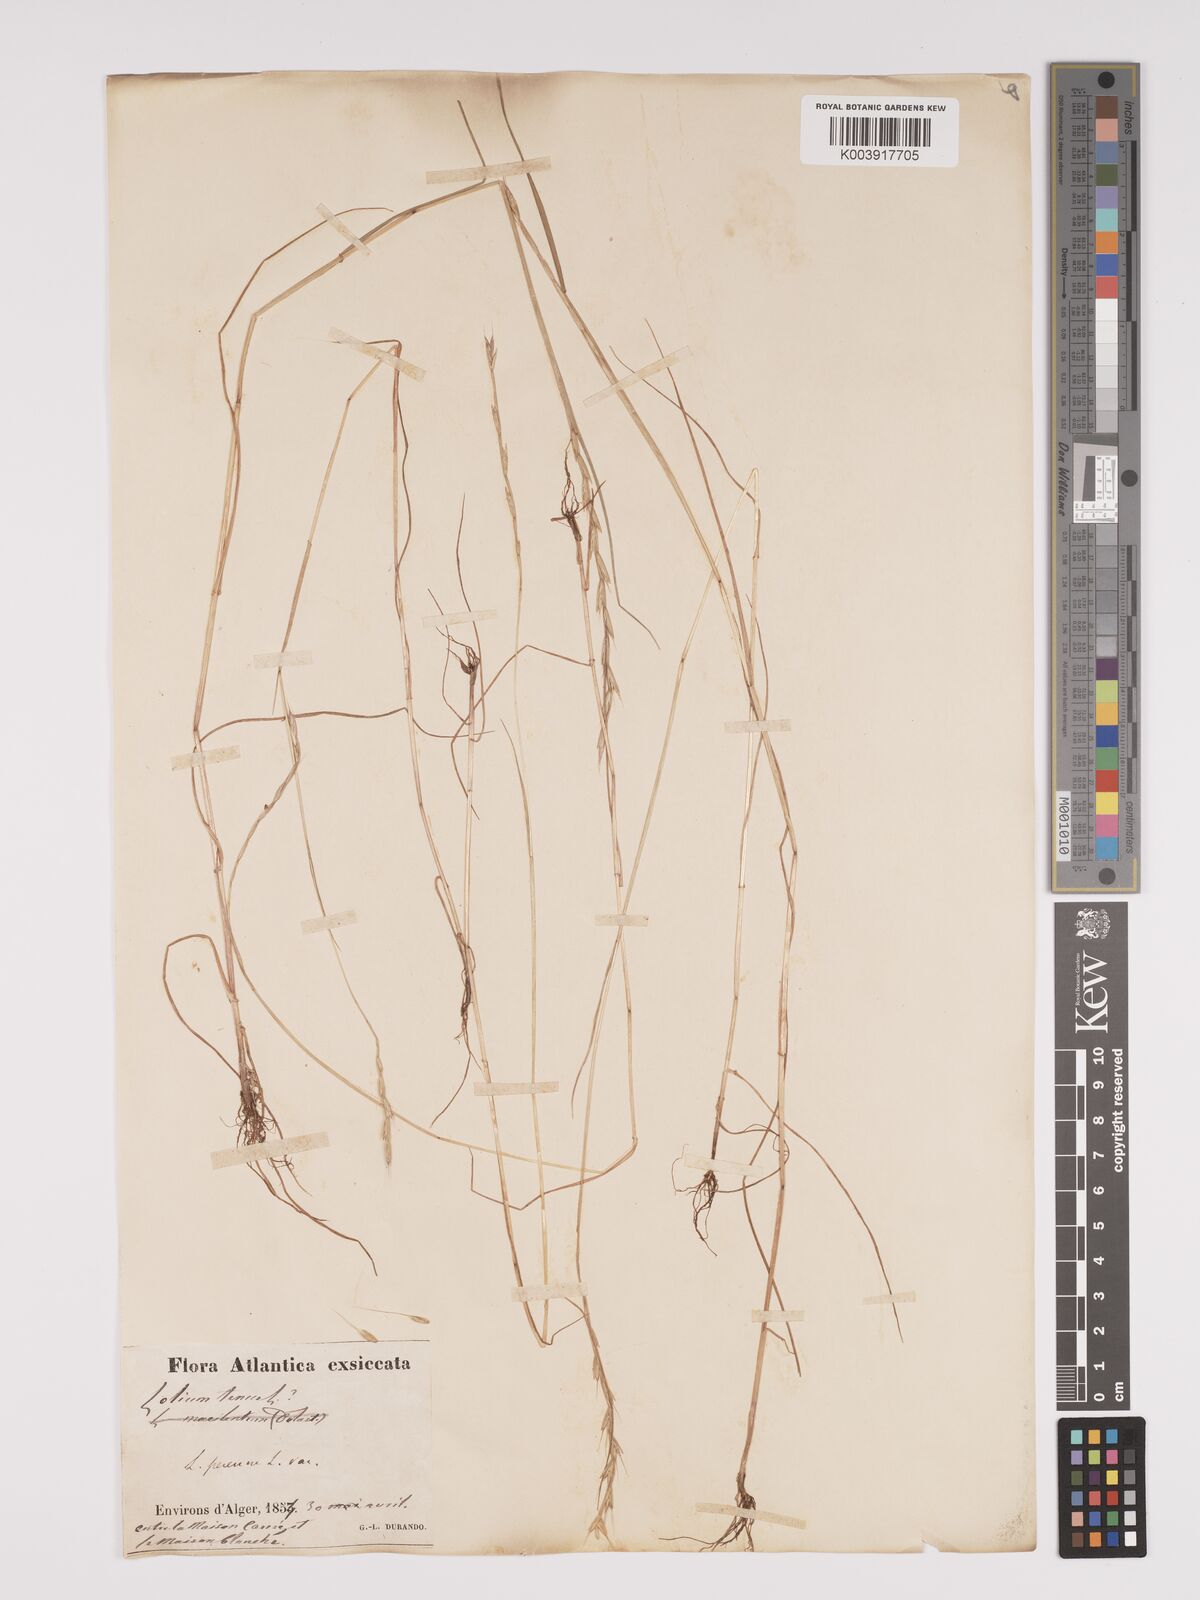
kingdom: Plantae
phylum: Tracheophyta
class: Liliopsida
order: Poales
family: Poaceae
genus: Lolium
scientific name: Lolium temulentum
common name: Darnel
